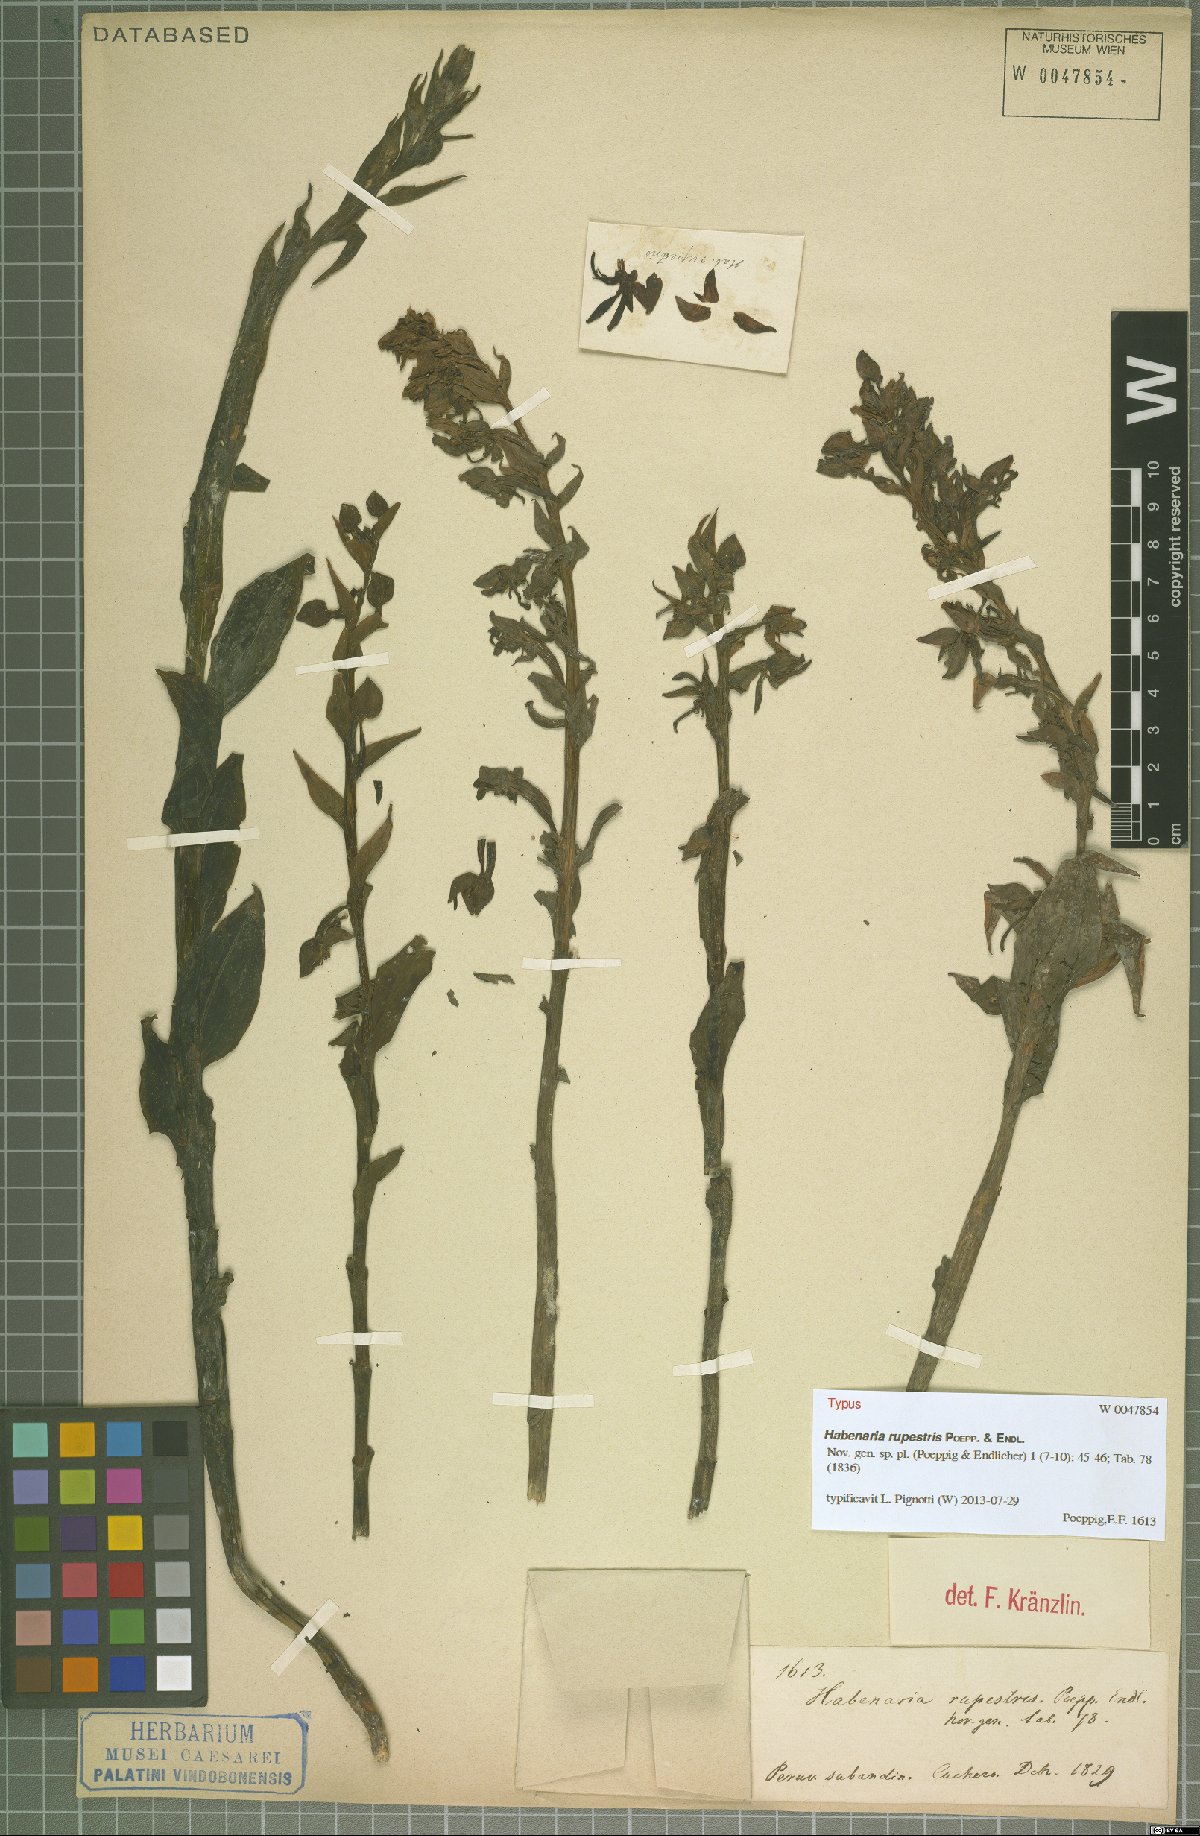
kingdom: Plantae
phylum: Tracheophyta
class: Liliopsida
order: Asparagales
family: Orchidaceae
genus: Habenaria
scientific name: Habenaria rupestris
